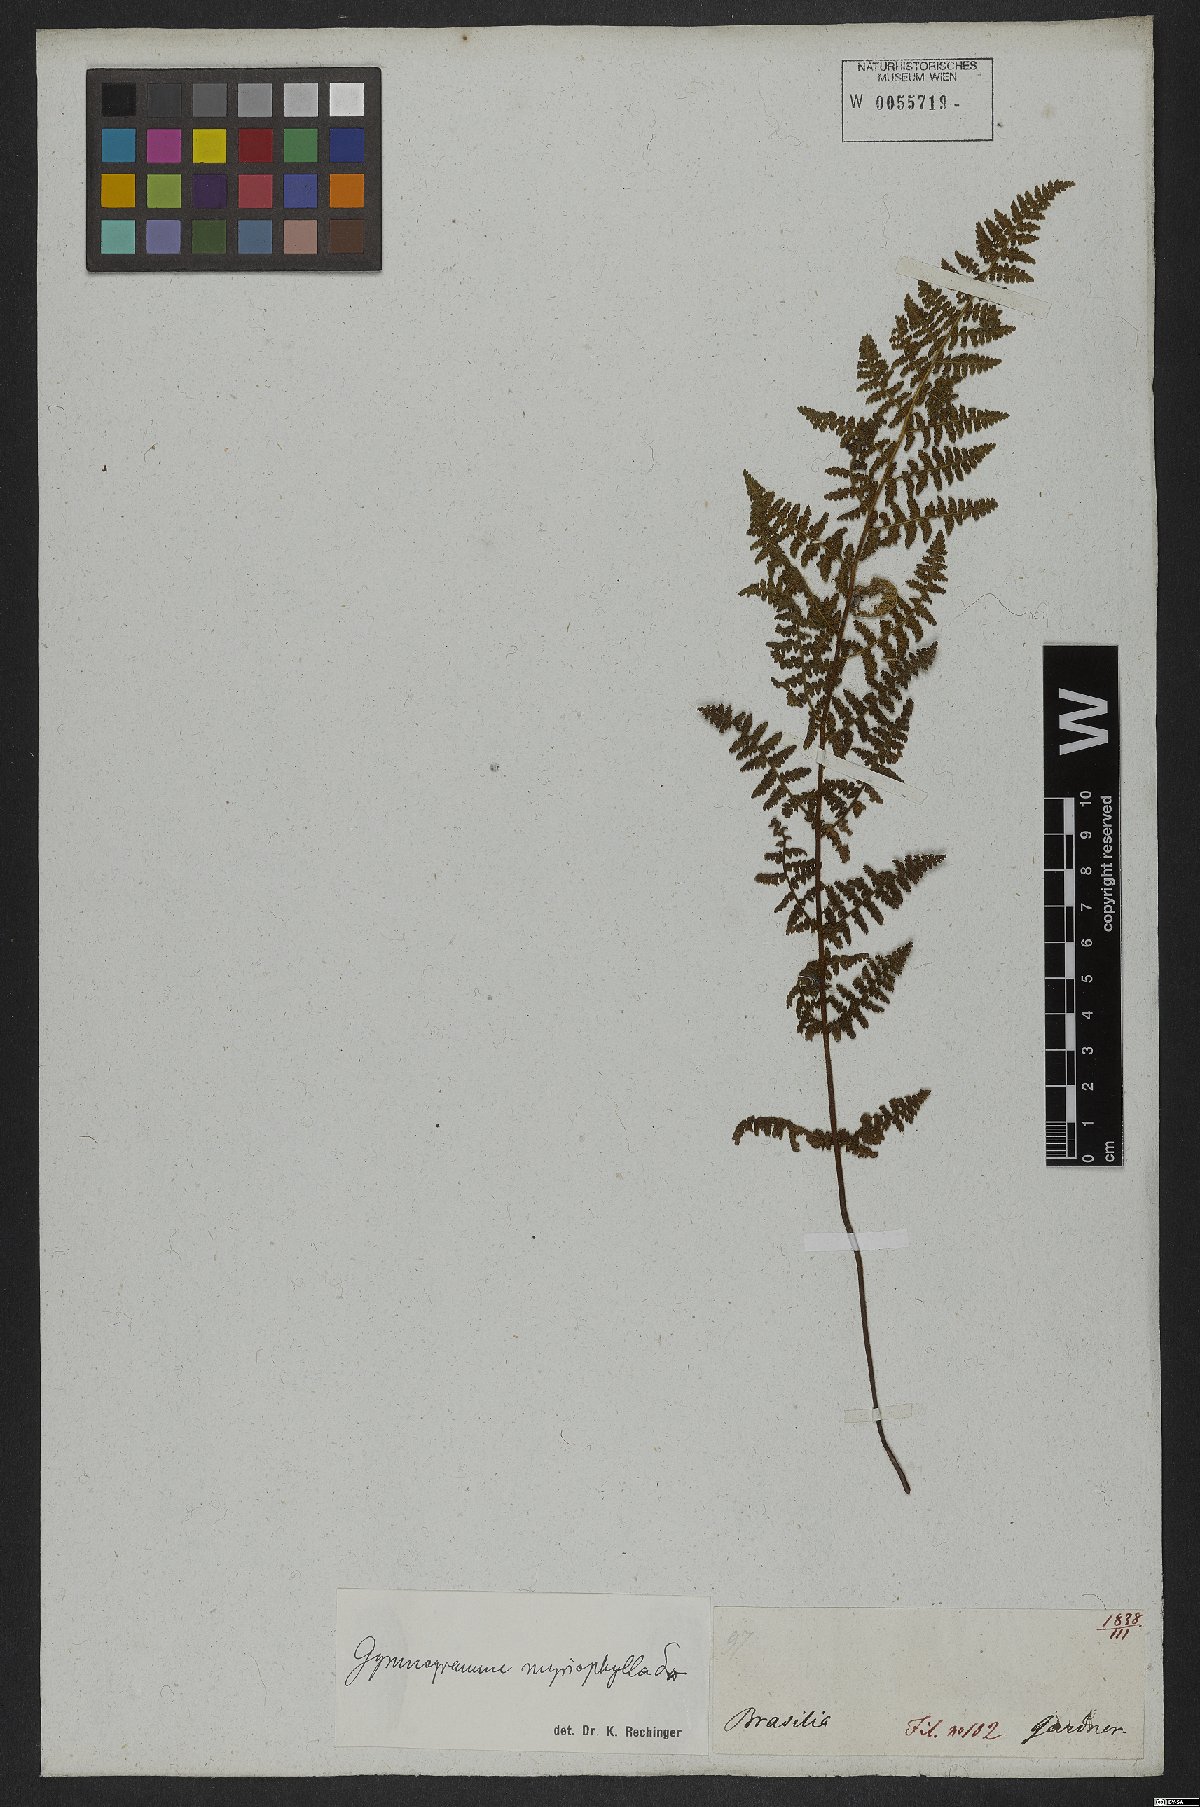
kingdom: Plantae
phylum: Tracheophyta
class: Polypodiopsida
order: Polypodiales
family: Pteridaceae
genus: Tryonia
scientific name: Tryonia myriophylla
